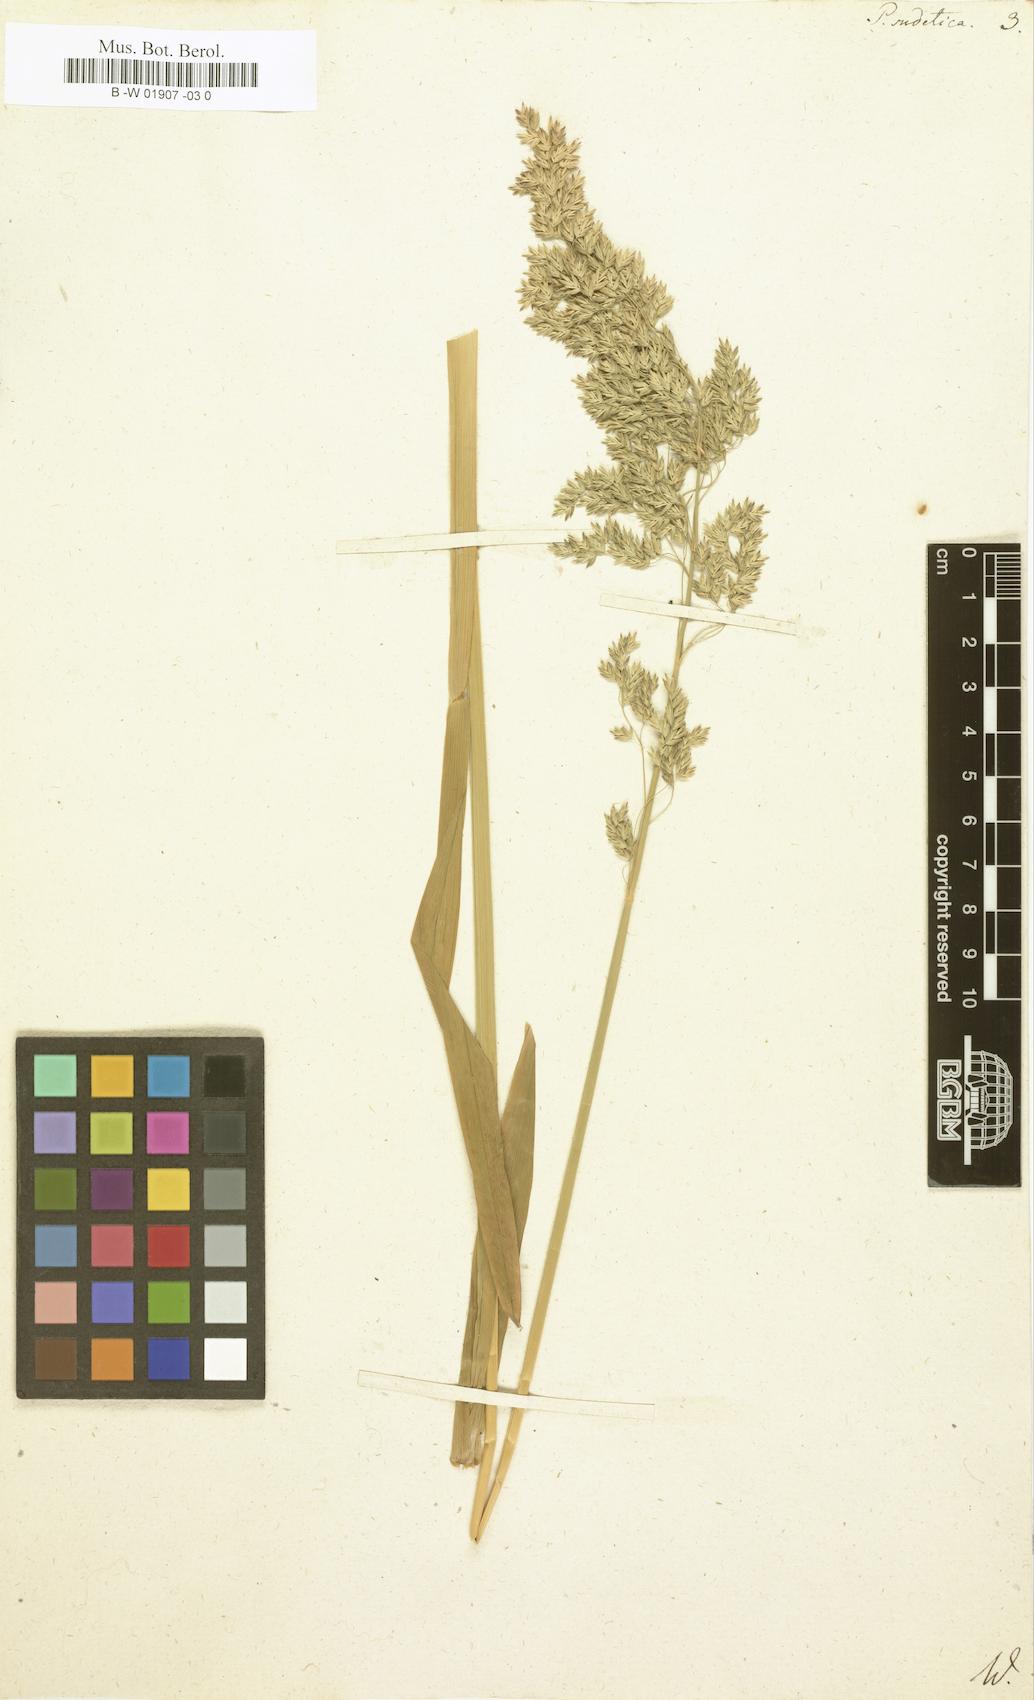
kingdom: Plantae
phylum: Tracheophyta
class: Liliopsida
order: Poales
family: Poaceae
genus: Poa
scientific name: Poa sudetica
